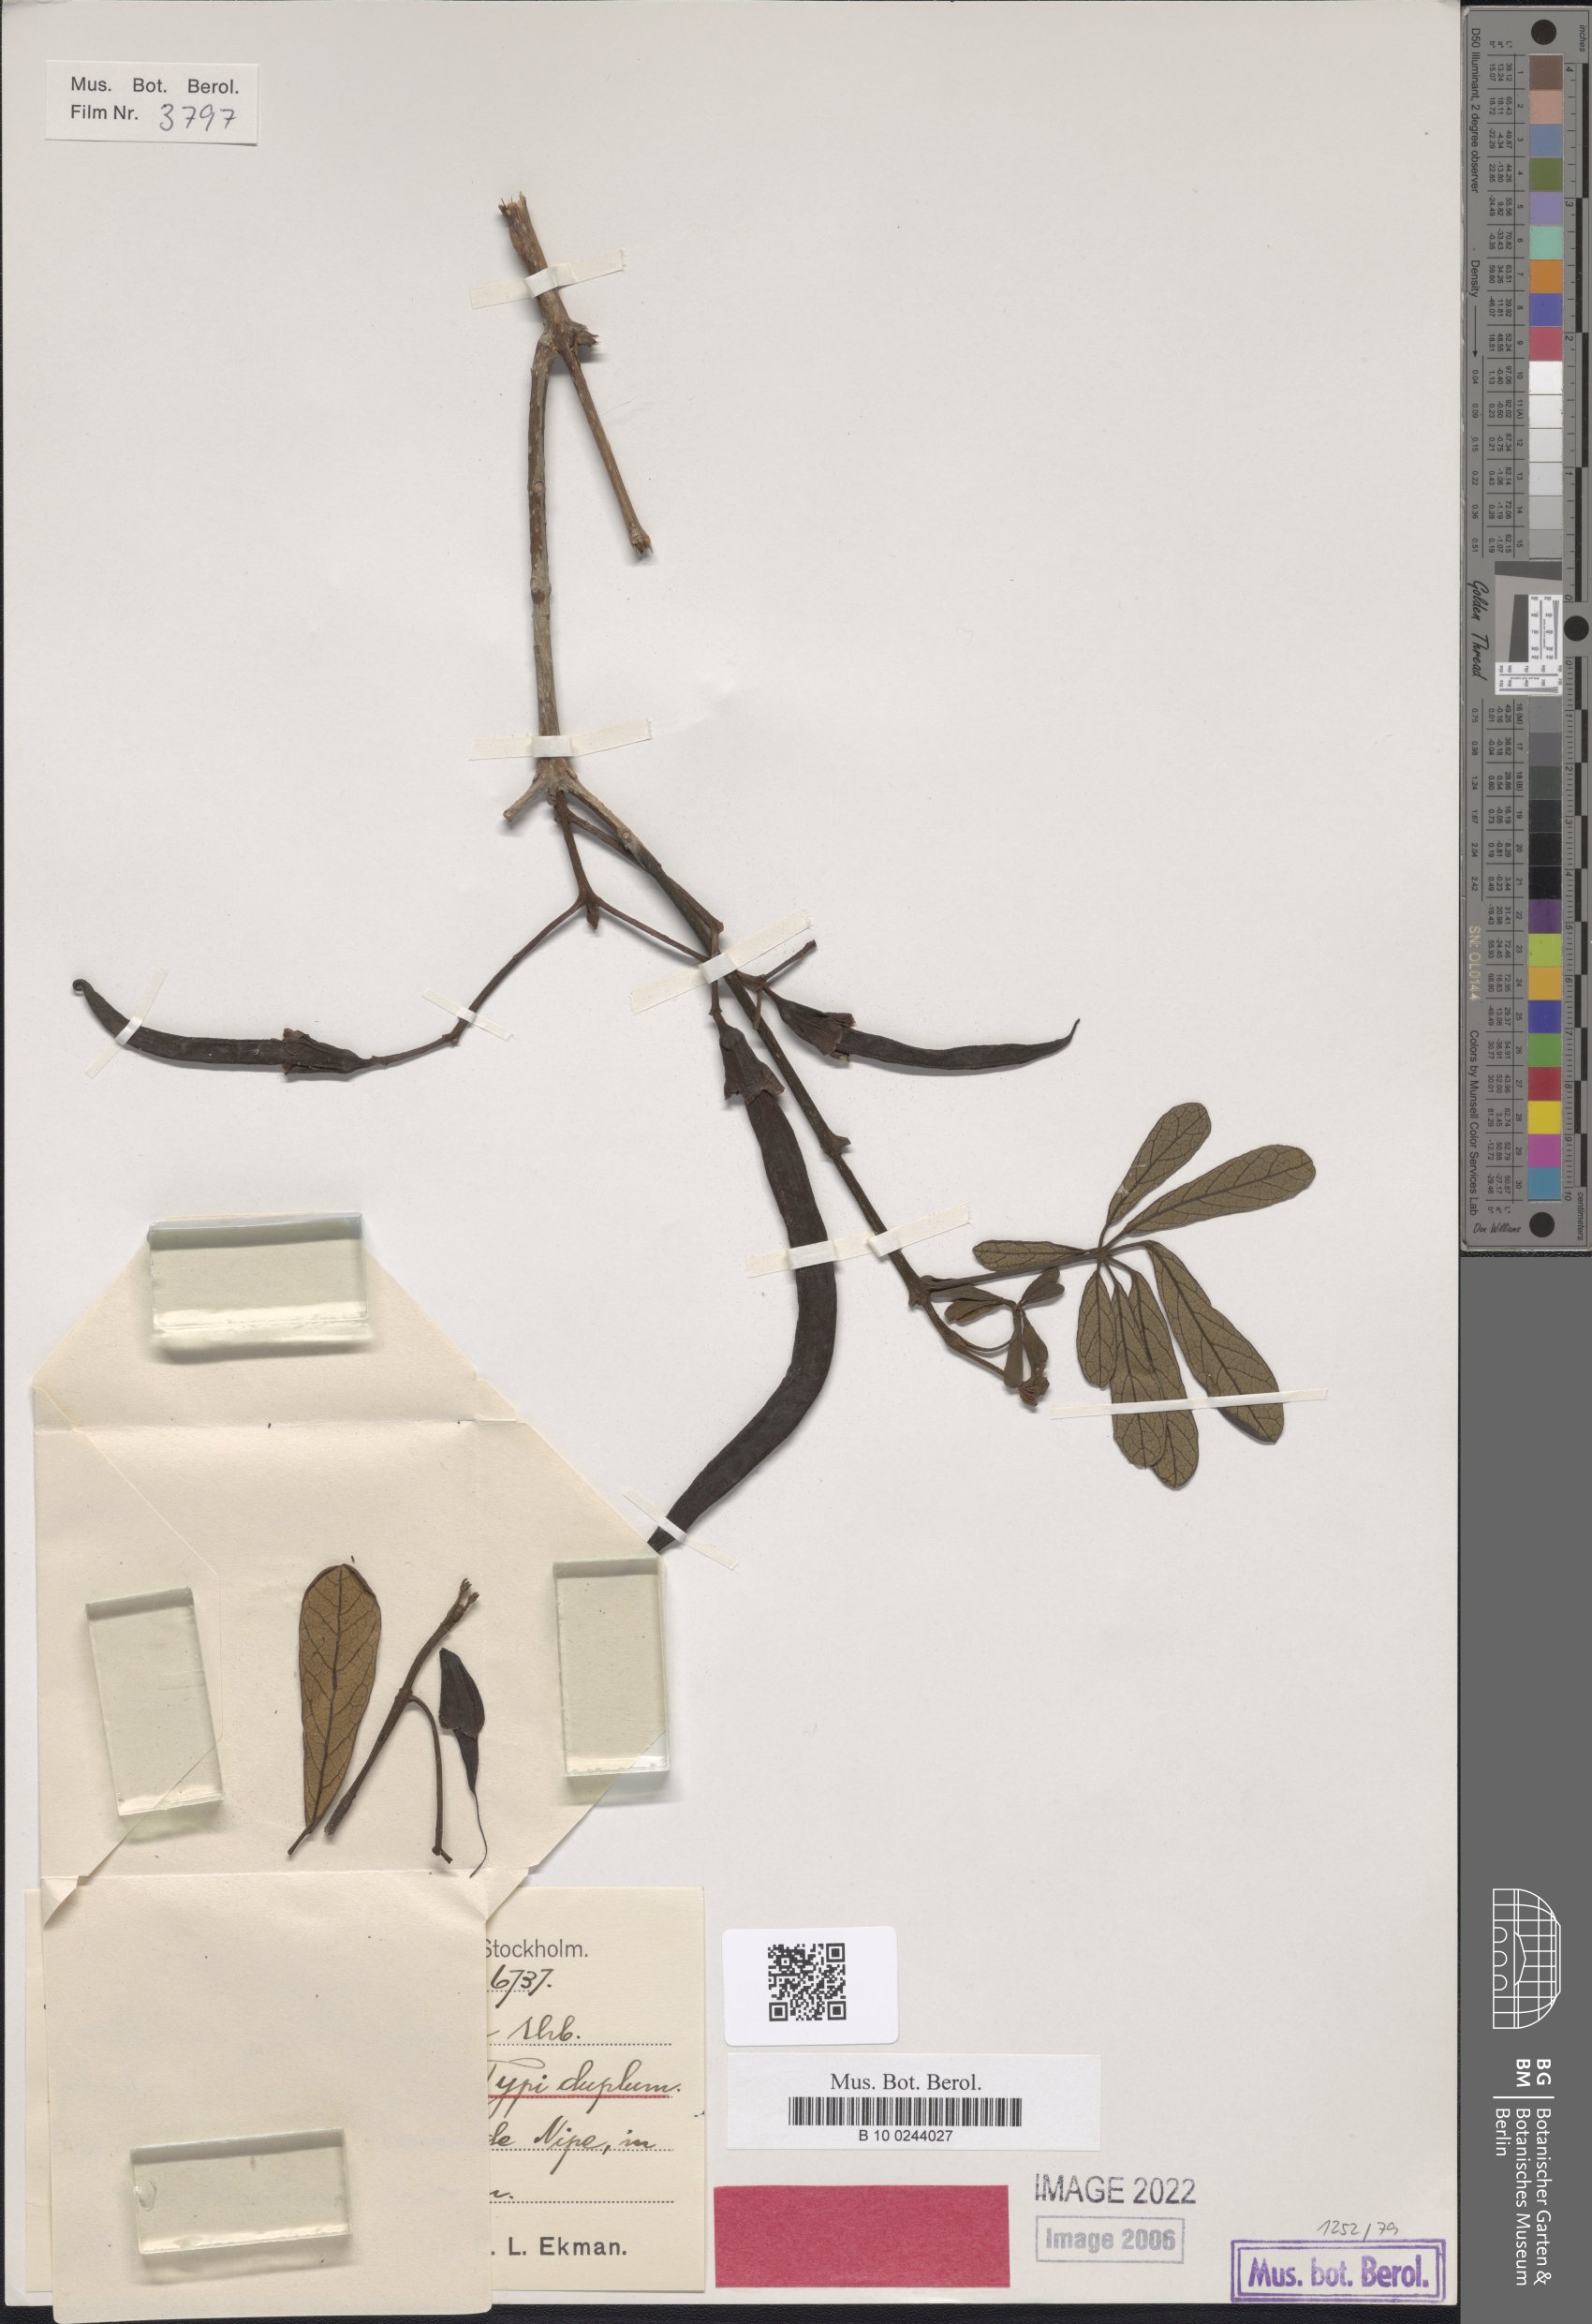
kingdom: Plantae
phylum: Tracheophyta
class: Magnoliopsida
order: Lamiales
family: Bignoniaceae
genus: Tabebuia
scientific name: Tabebuia pulverulenta
